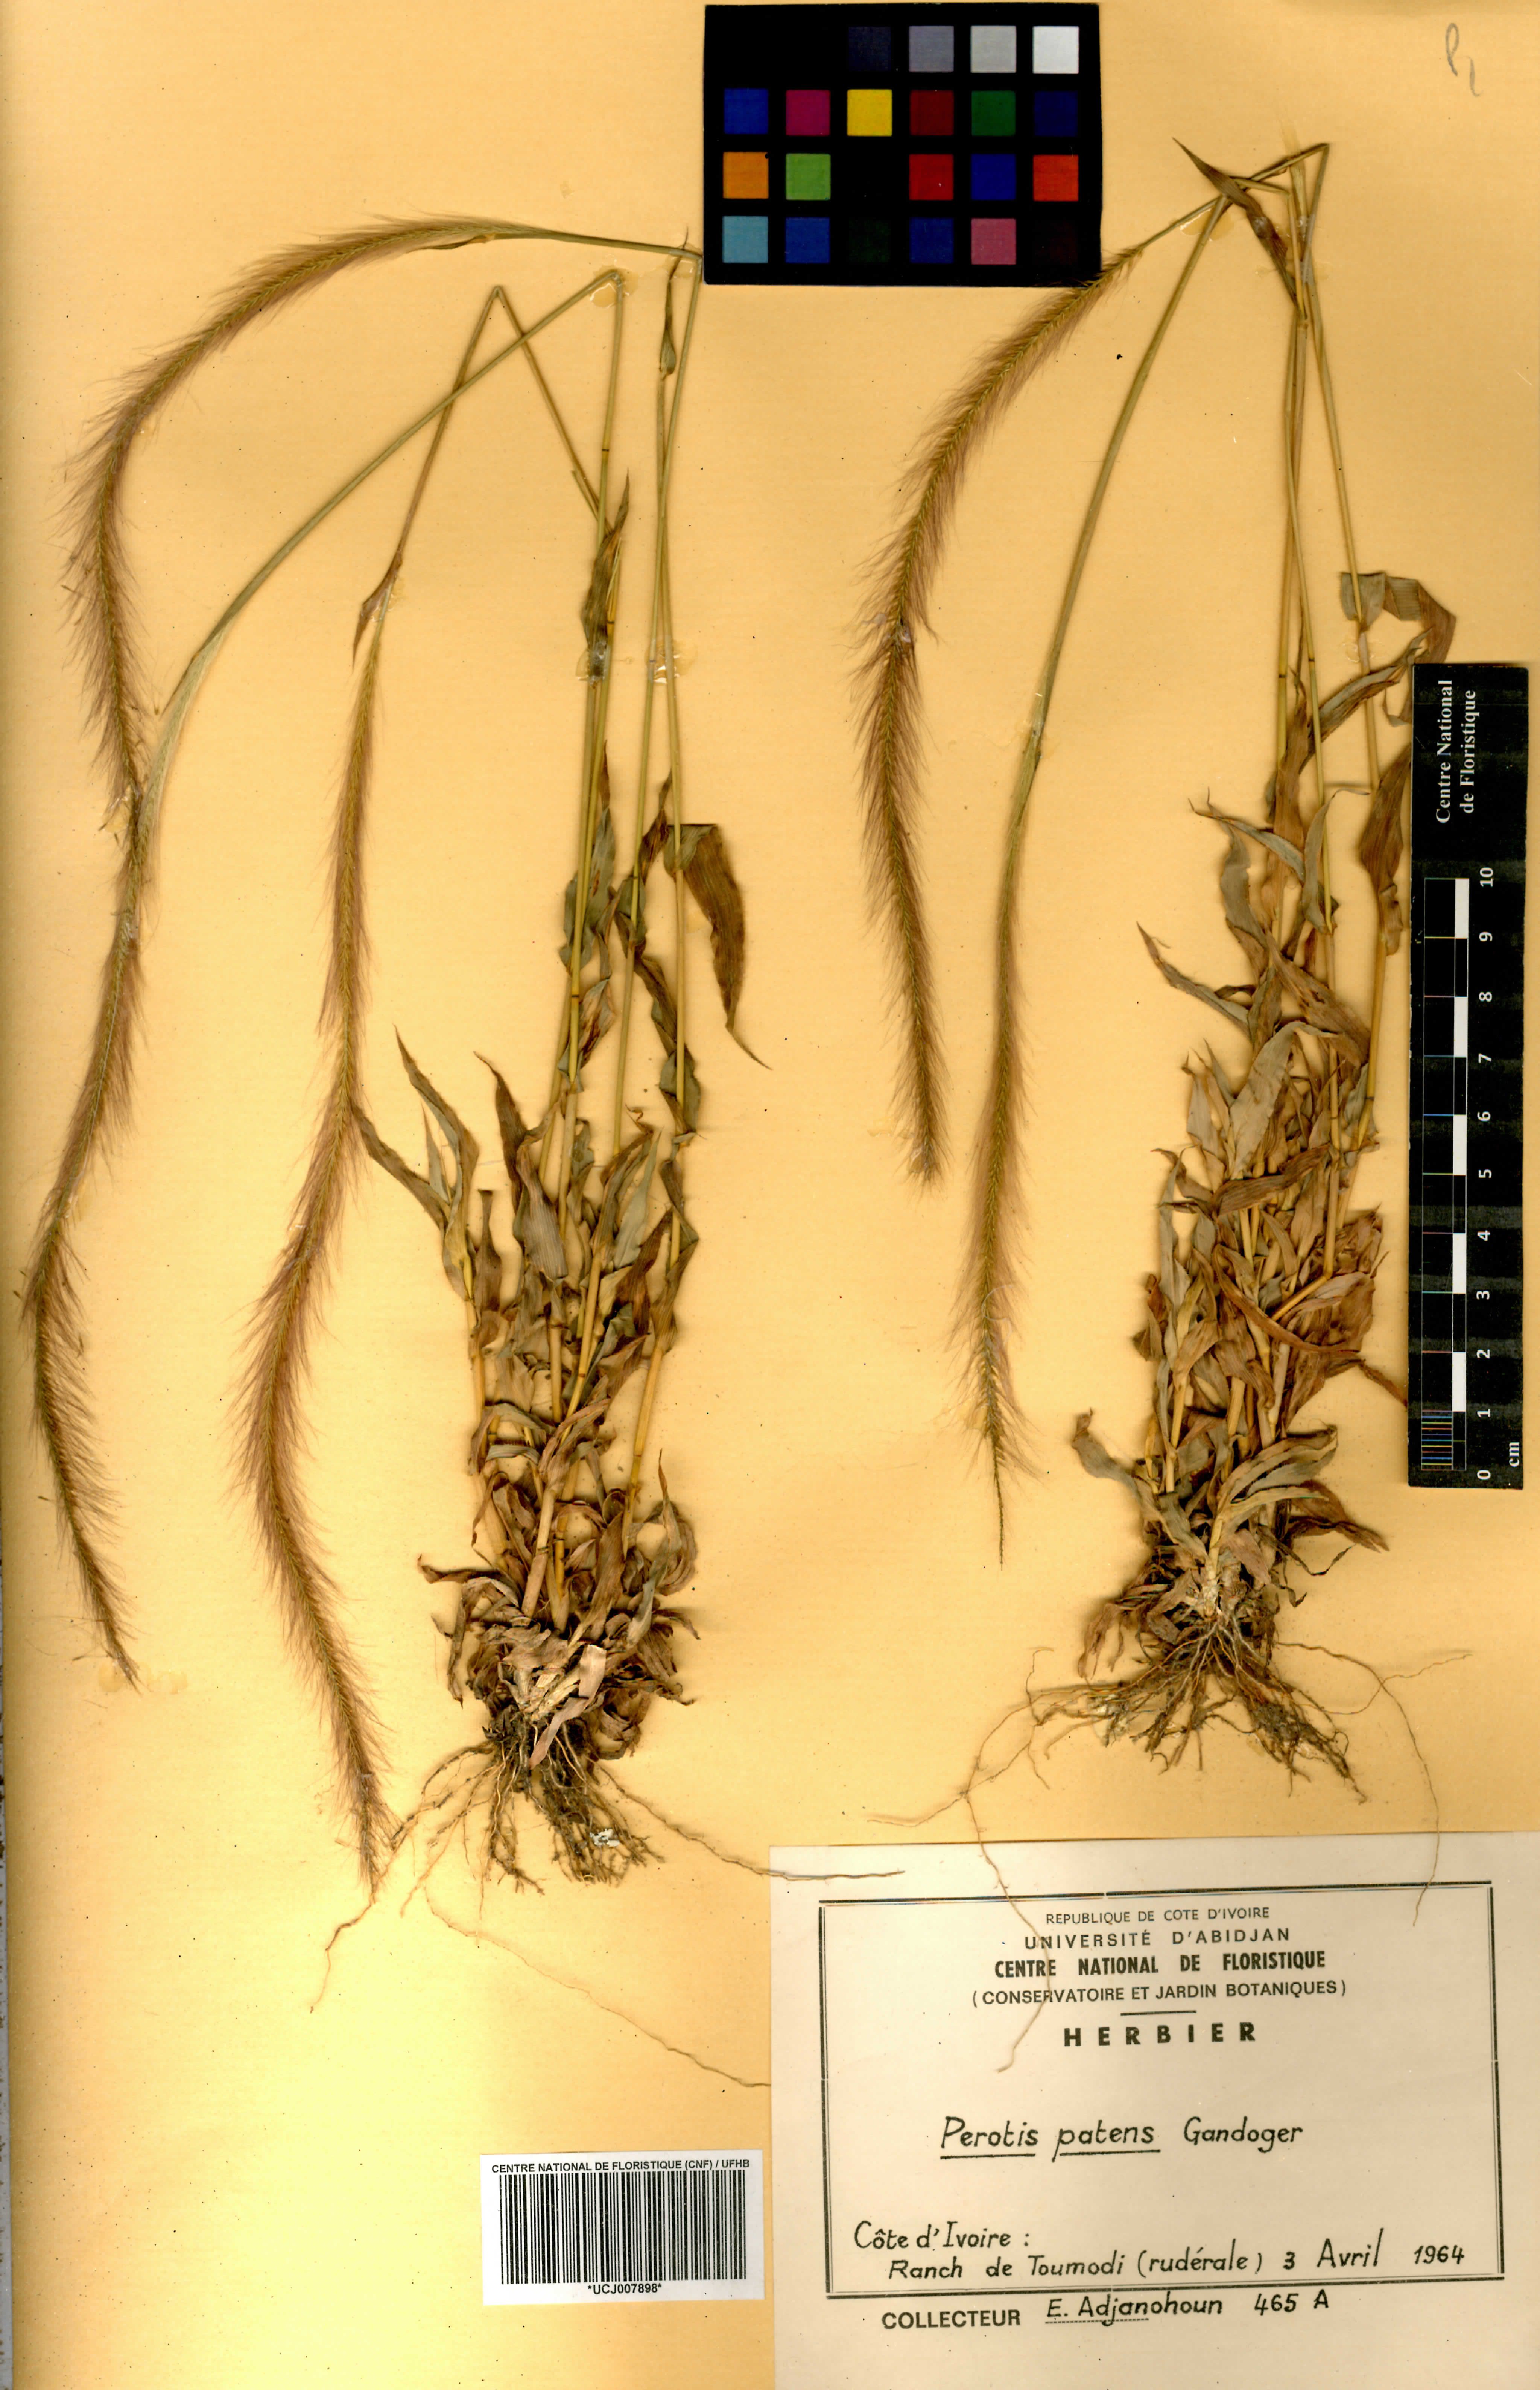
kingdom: Plantae
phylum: Tracheophyta
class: Liliopsida
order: Poales
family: Poaceae
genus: Perotis
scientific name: Perotis patens
